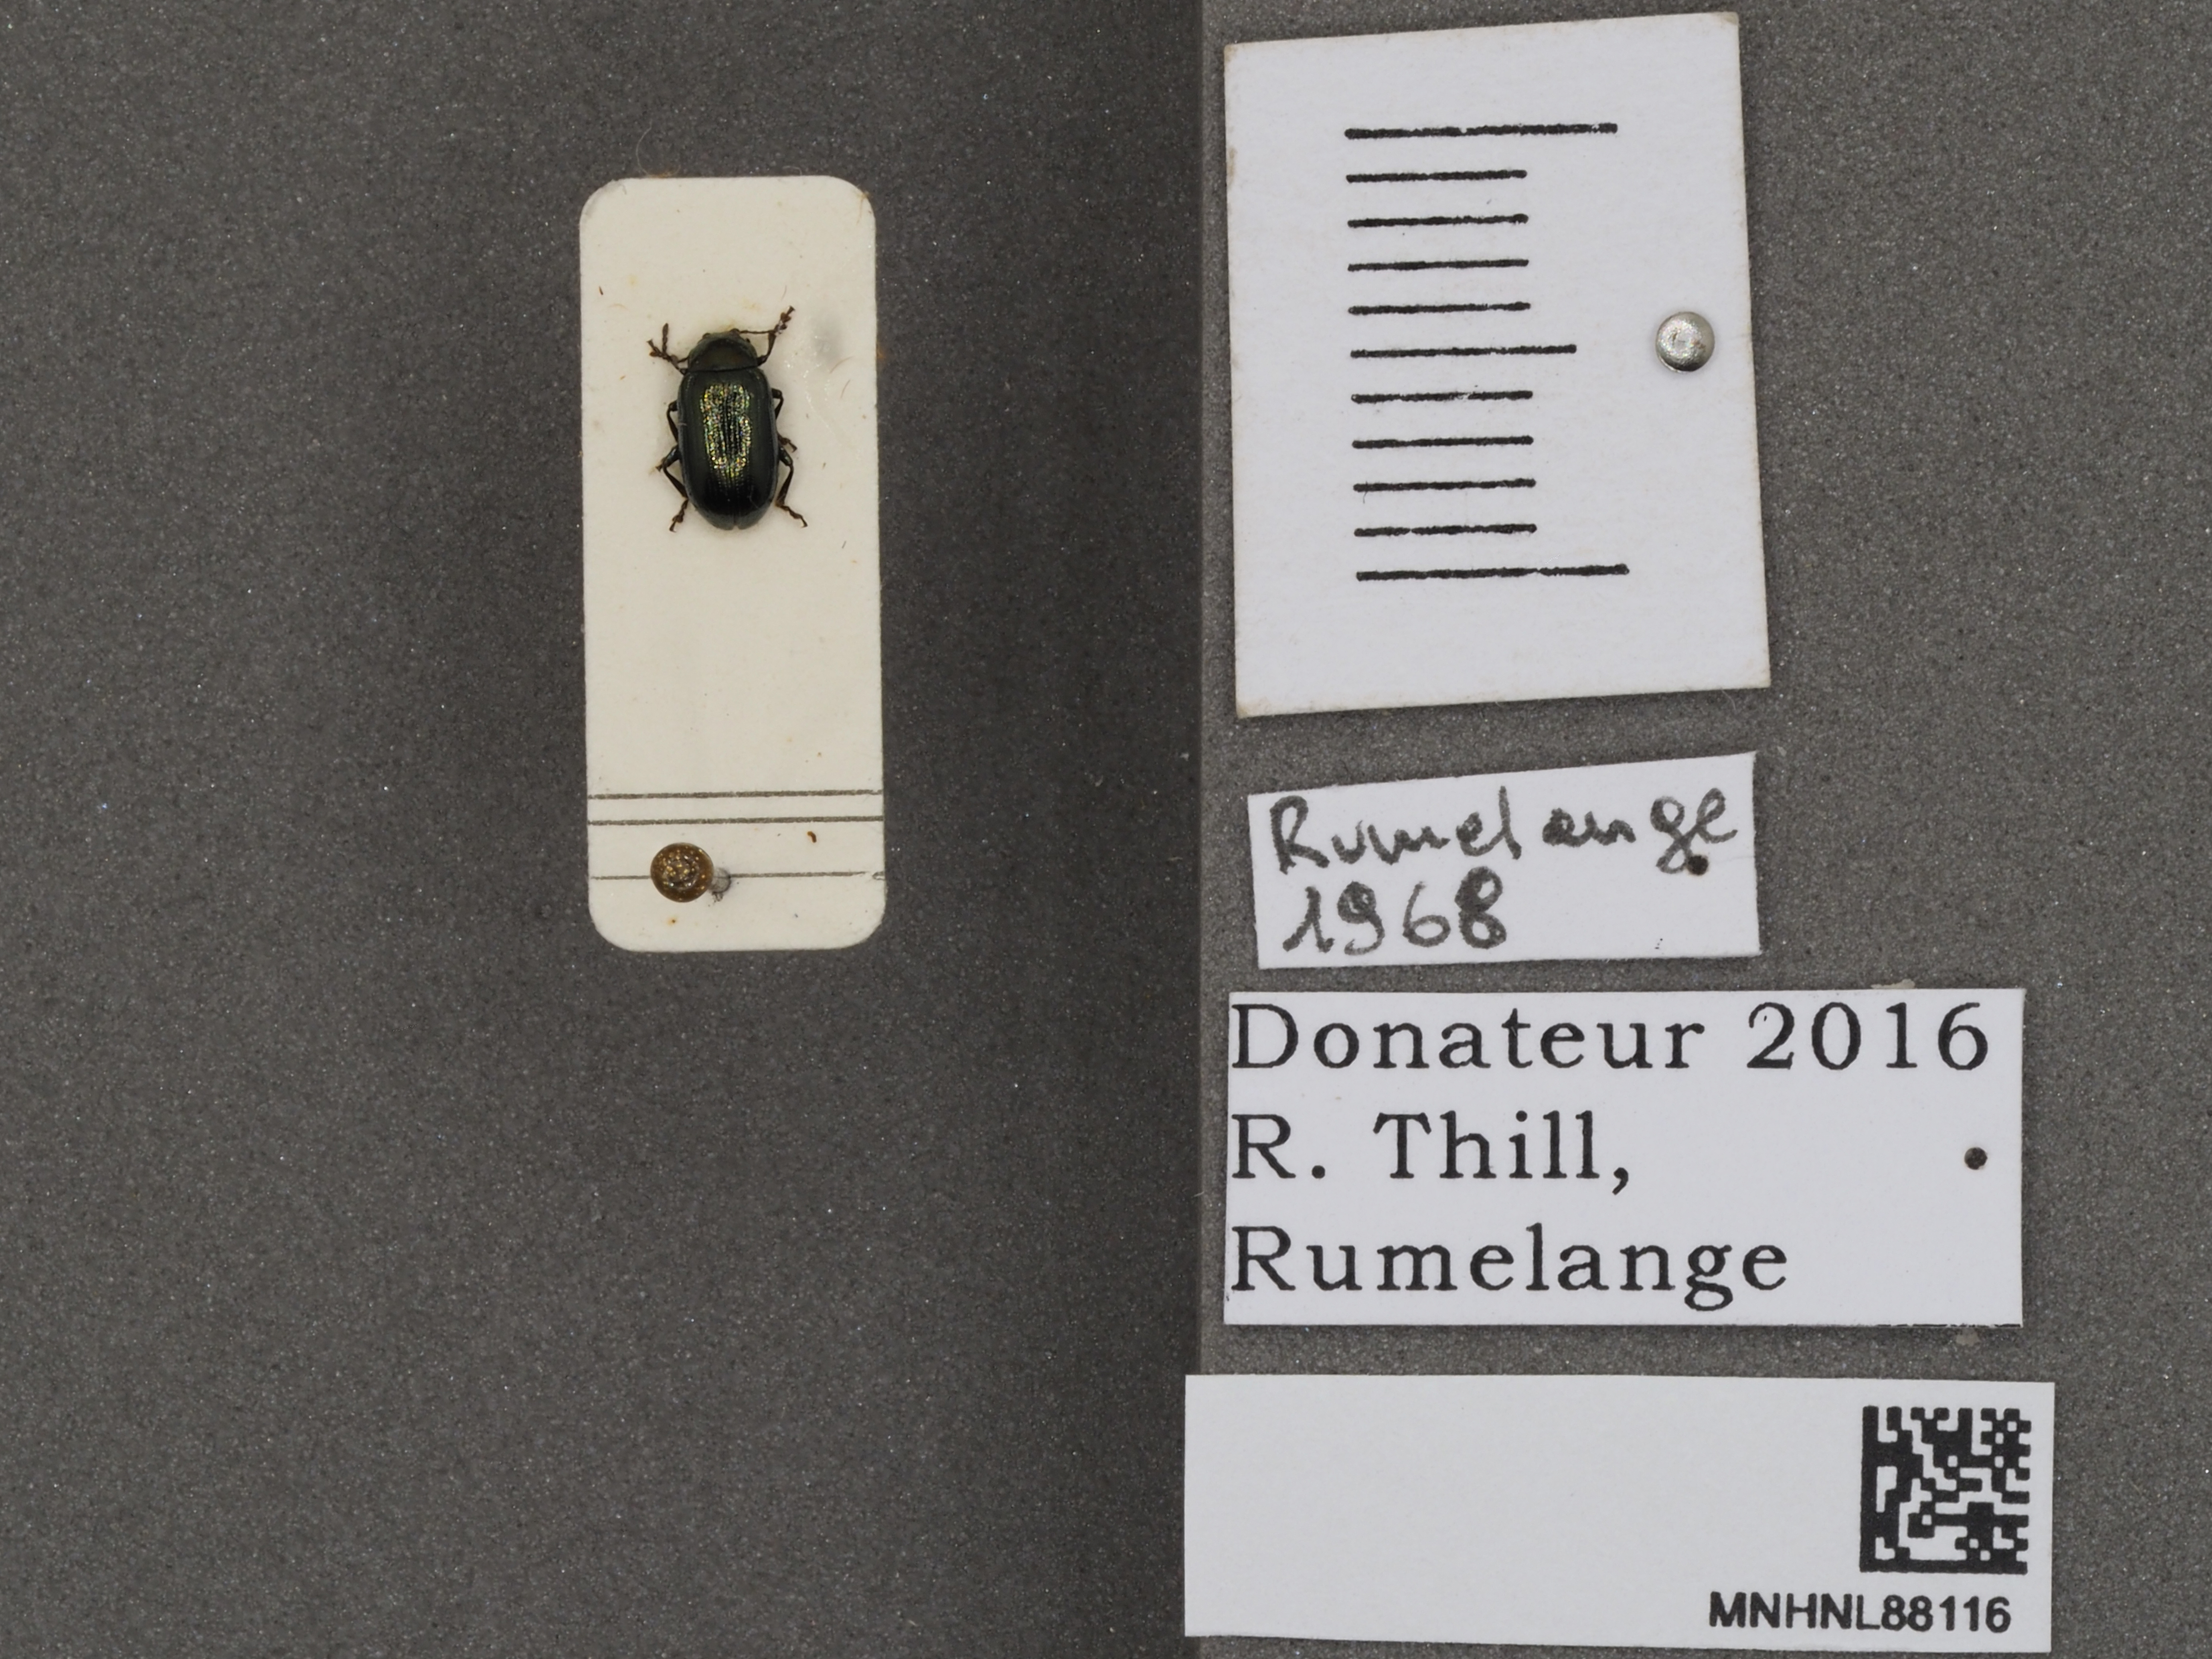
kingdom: Animalia
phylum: Arthropoda
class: Insecta
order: Coleoptera
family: Chrysomelidae
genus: Phratora
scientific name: Phratora laticollis
